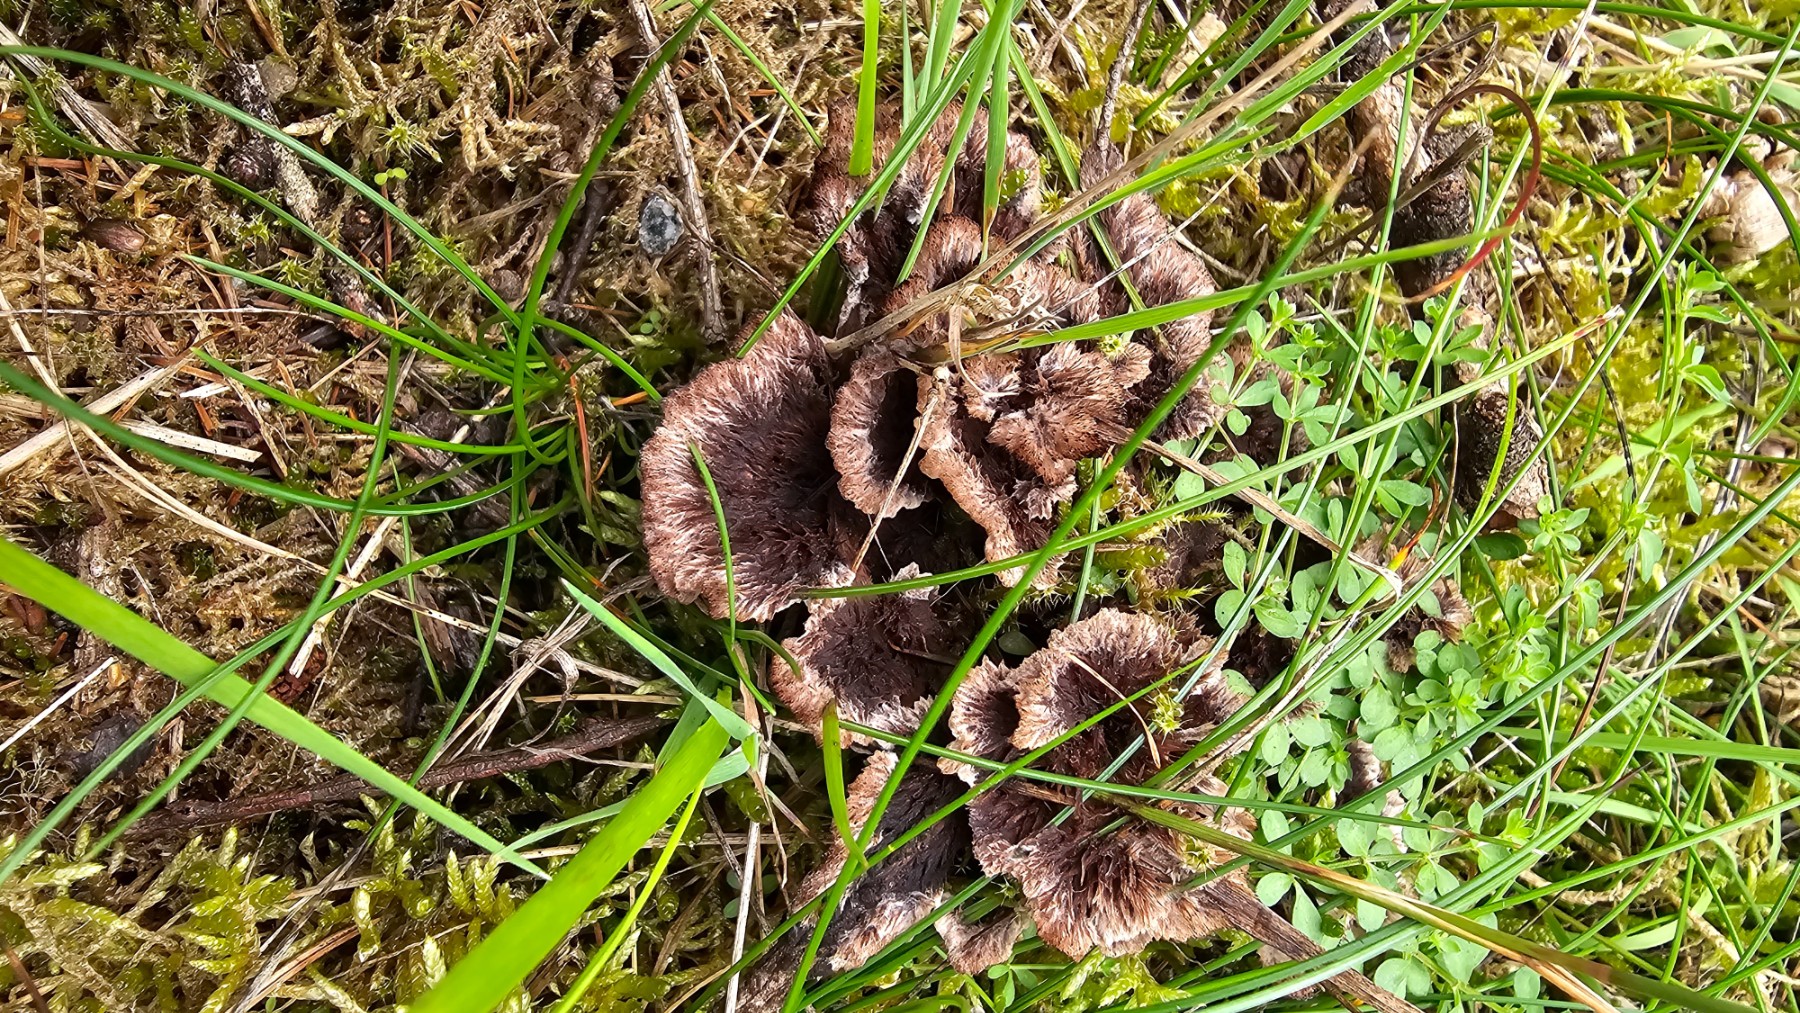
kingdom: Fungi
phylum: Basidiomycota
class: Agaricomycetes
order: Thelephorales
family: Thelephoraceae
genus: Thelephora
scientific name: Thelephora terrestris
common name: fliget frynsesvamp
